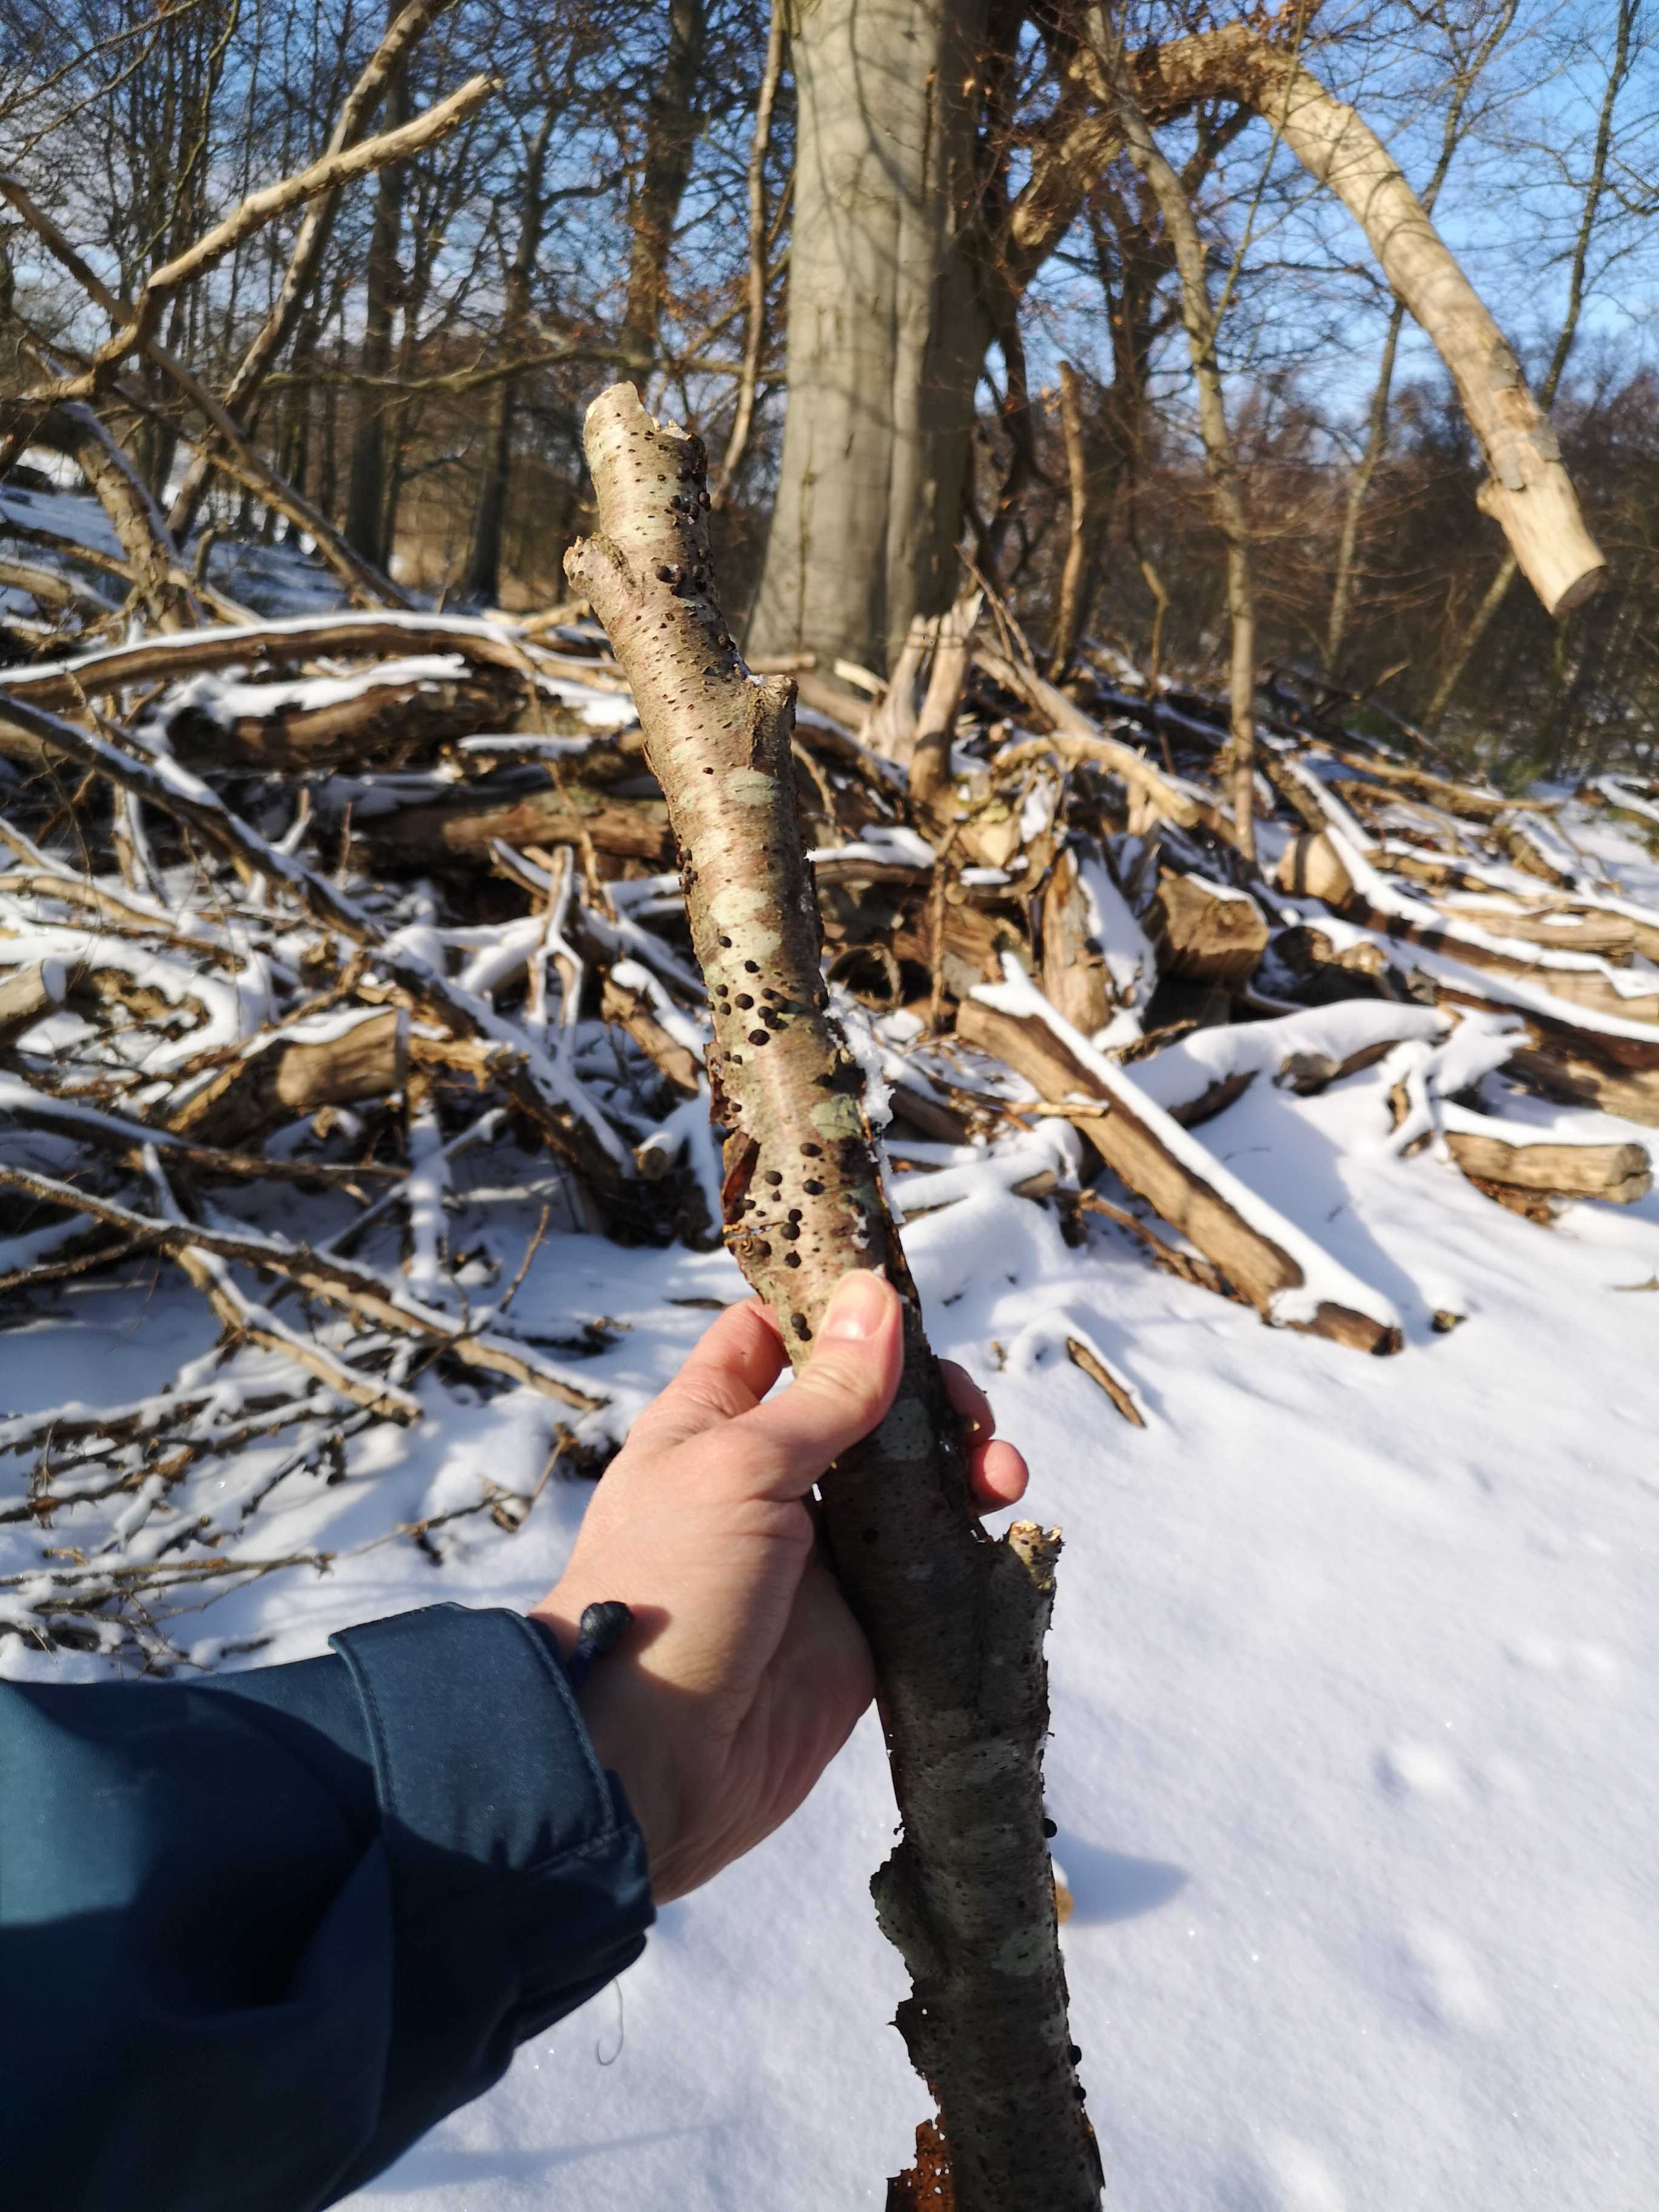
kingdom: Fungi
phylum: Ascomycota
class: Sordariomycetes
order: Xylariales
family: Hypoxylaceae
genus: Hypoxylon
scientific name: Hypoxylon
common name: kulbær
